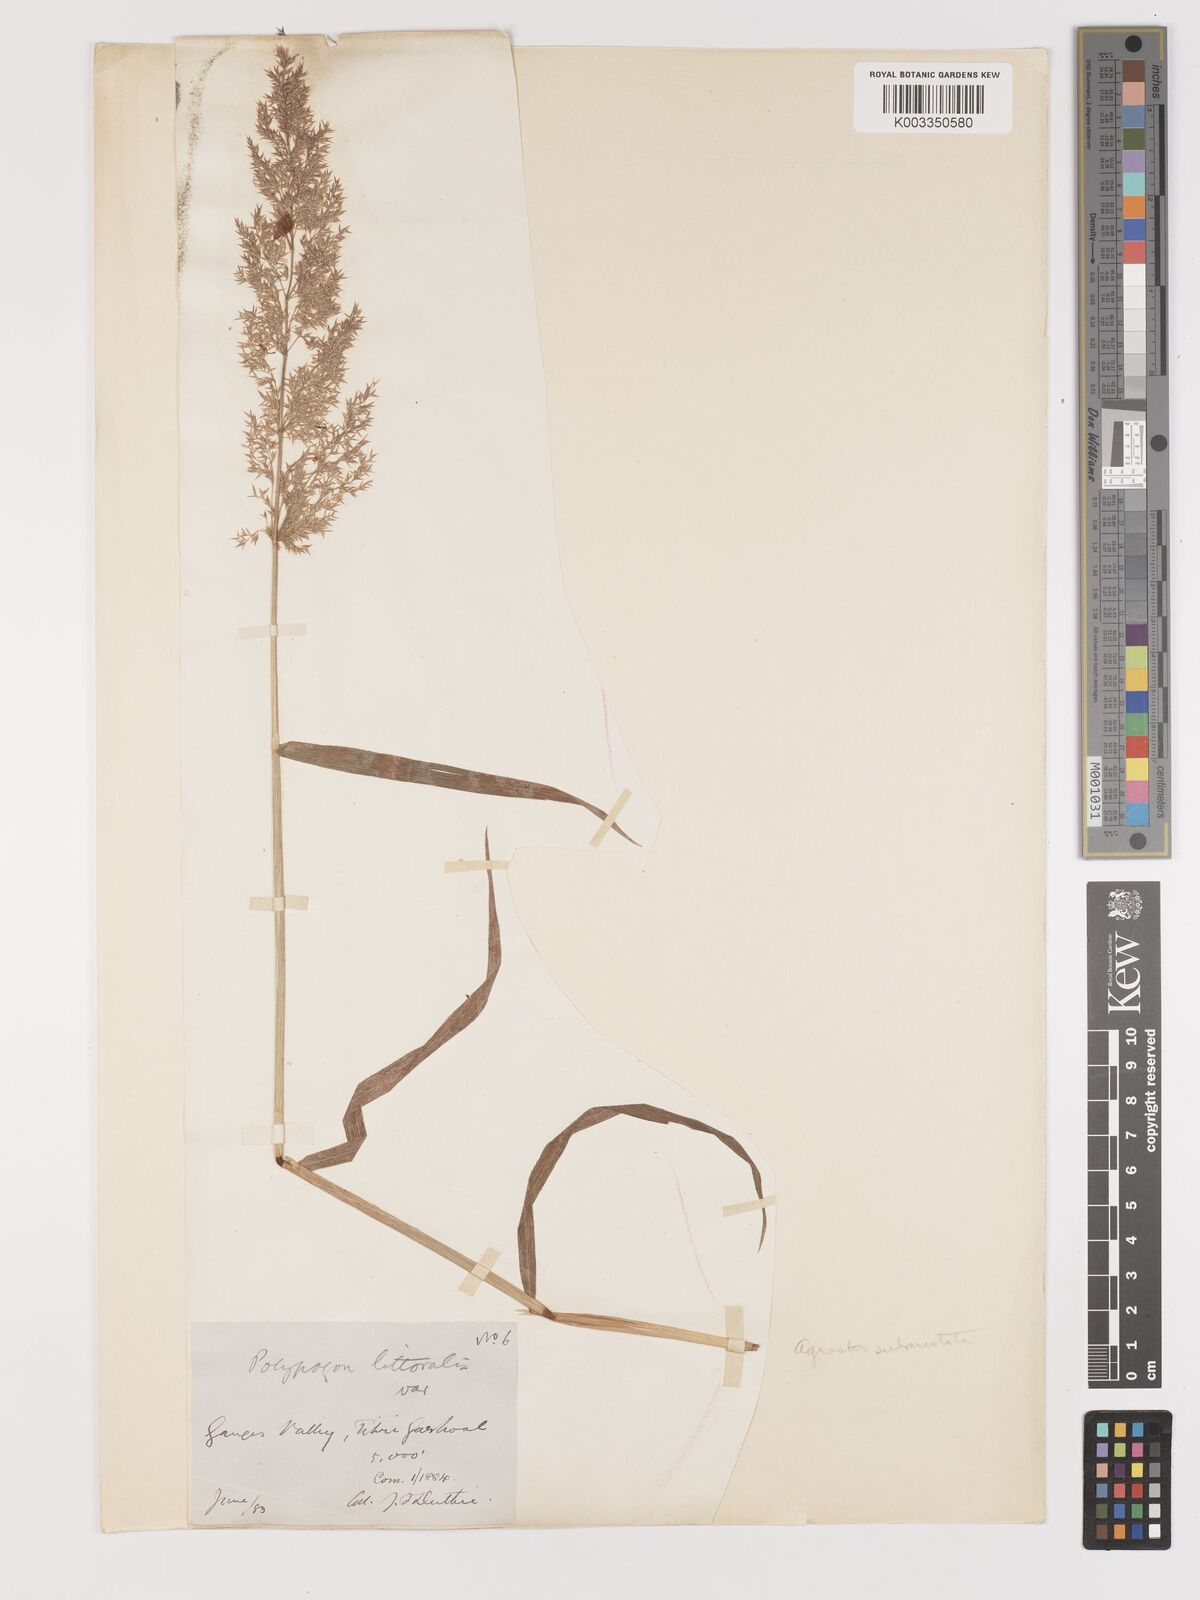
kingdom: Plantae
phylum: Tracheophyta
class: Liliopsida
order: Poales
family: Poaceae
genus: Agropogon
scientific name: Agropogon lutosus
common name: Coast agropogon
